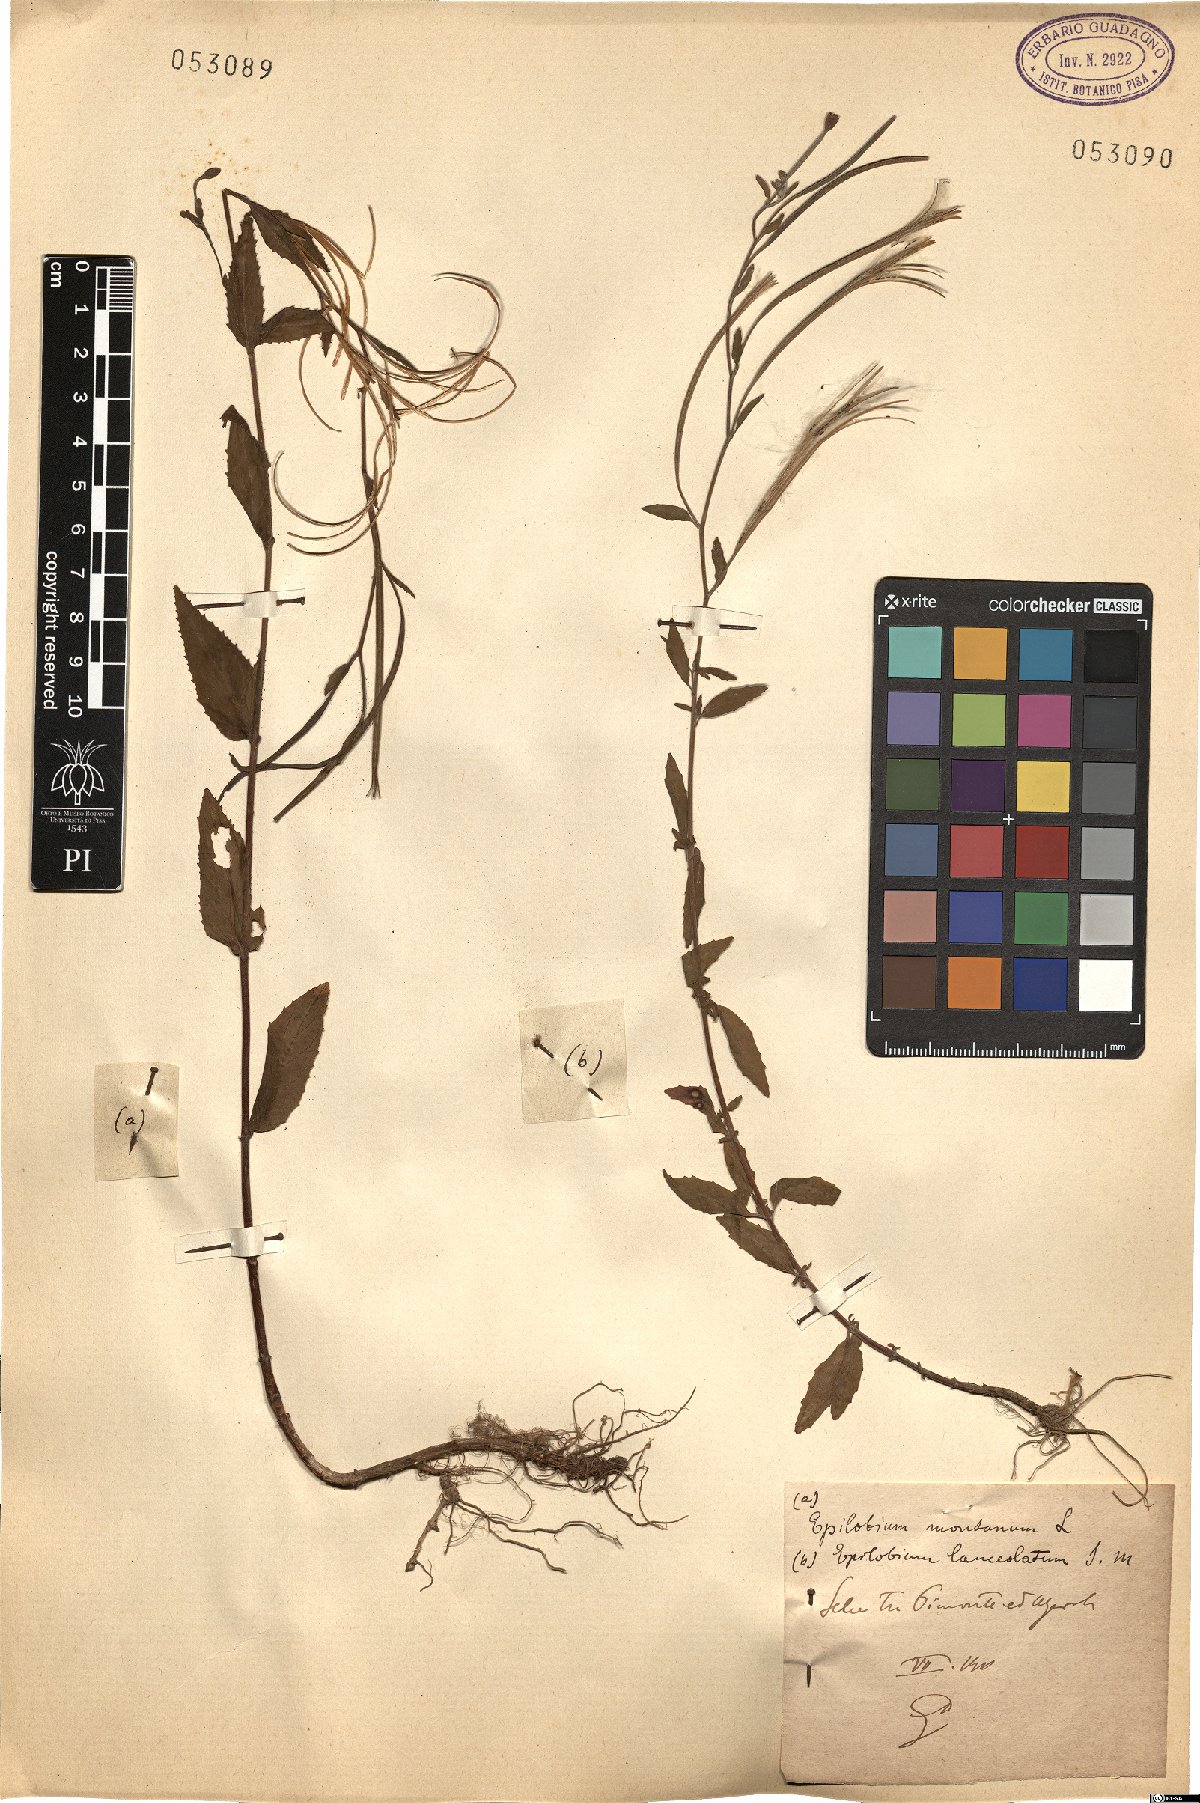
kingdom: Plantae
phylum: Tracheophyta
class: Magnoliopsida
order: Myrtales
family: Onagraceae
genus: Epilobium
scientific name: Epilobium lanceolatum
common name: Spear-leaved willowherb
